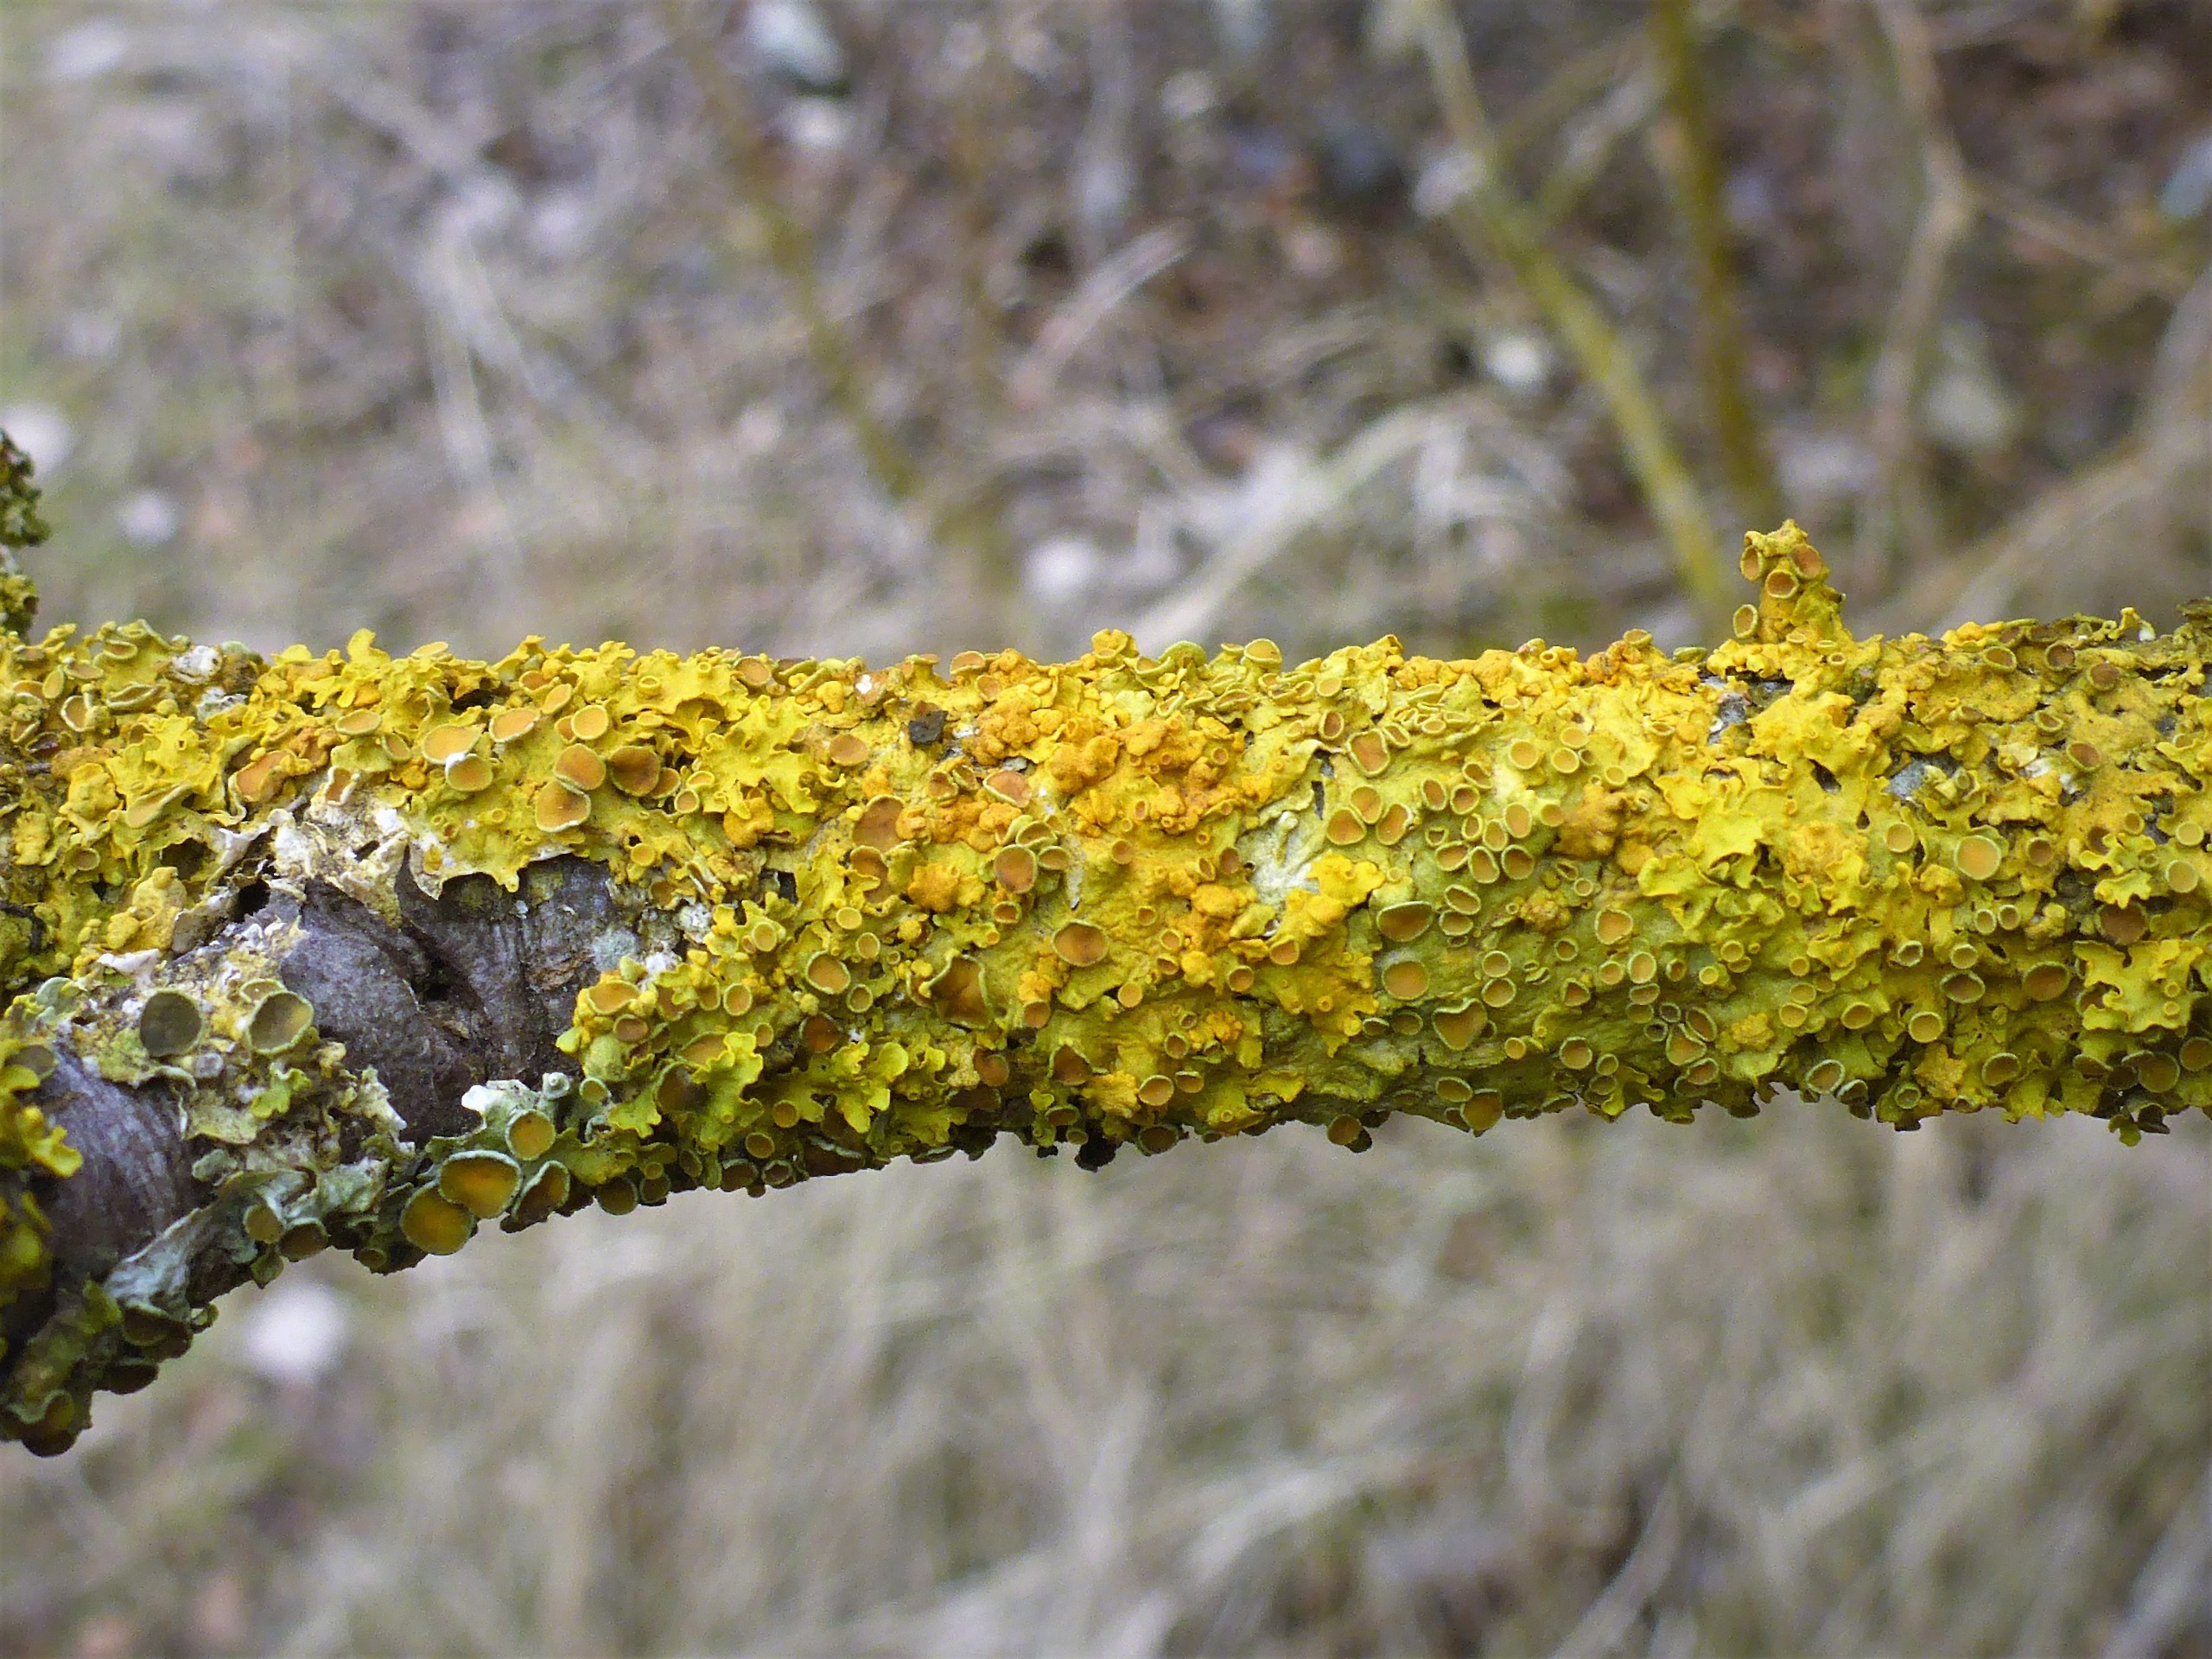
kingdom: Fungi
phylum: Ascomycota
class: Lecanoromycetes
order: Teloschistales
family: Teloschistaceae
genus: Xanthoria
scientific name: Xanthoria parietina
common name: Almindelig væggelav
